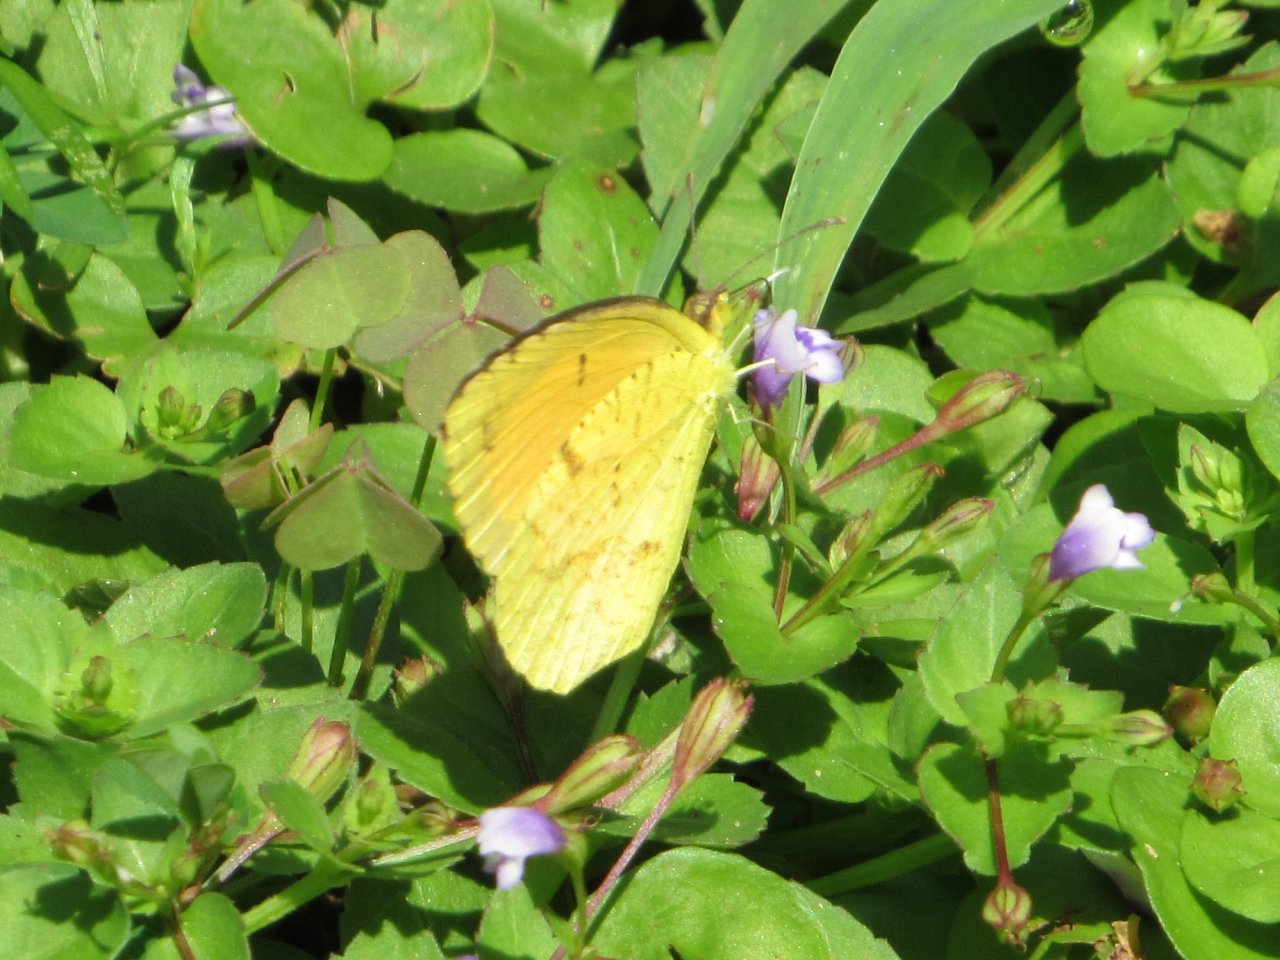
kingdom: Animalia
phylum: Arthropoda
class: Insecta
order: Lepidoptera
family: Pieridae
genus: Abaeis
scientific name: Abaeis nicippe
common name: Sleepy Orange
